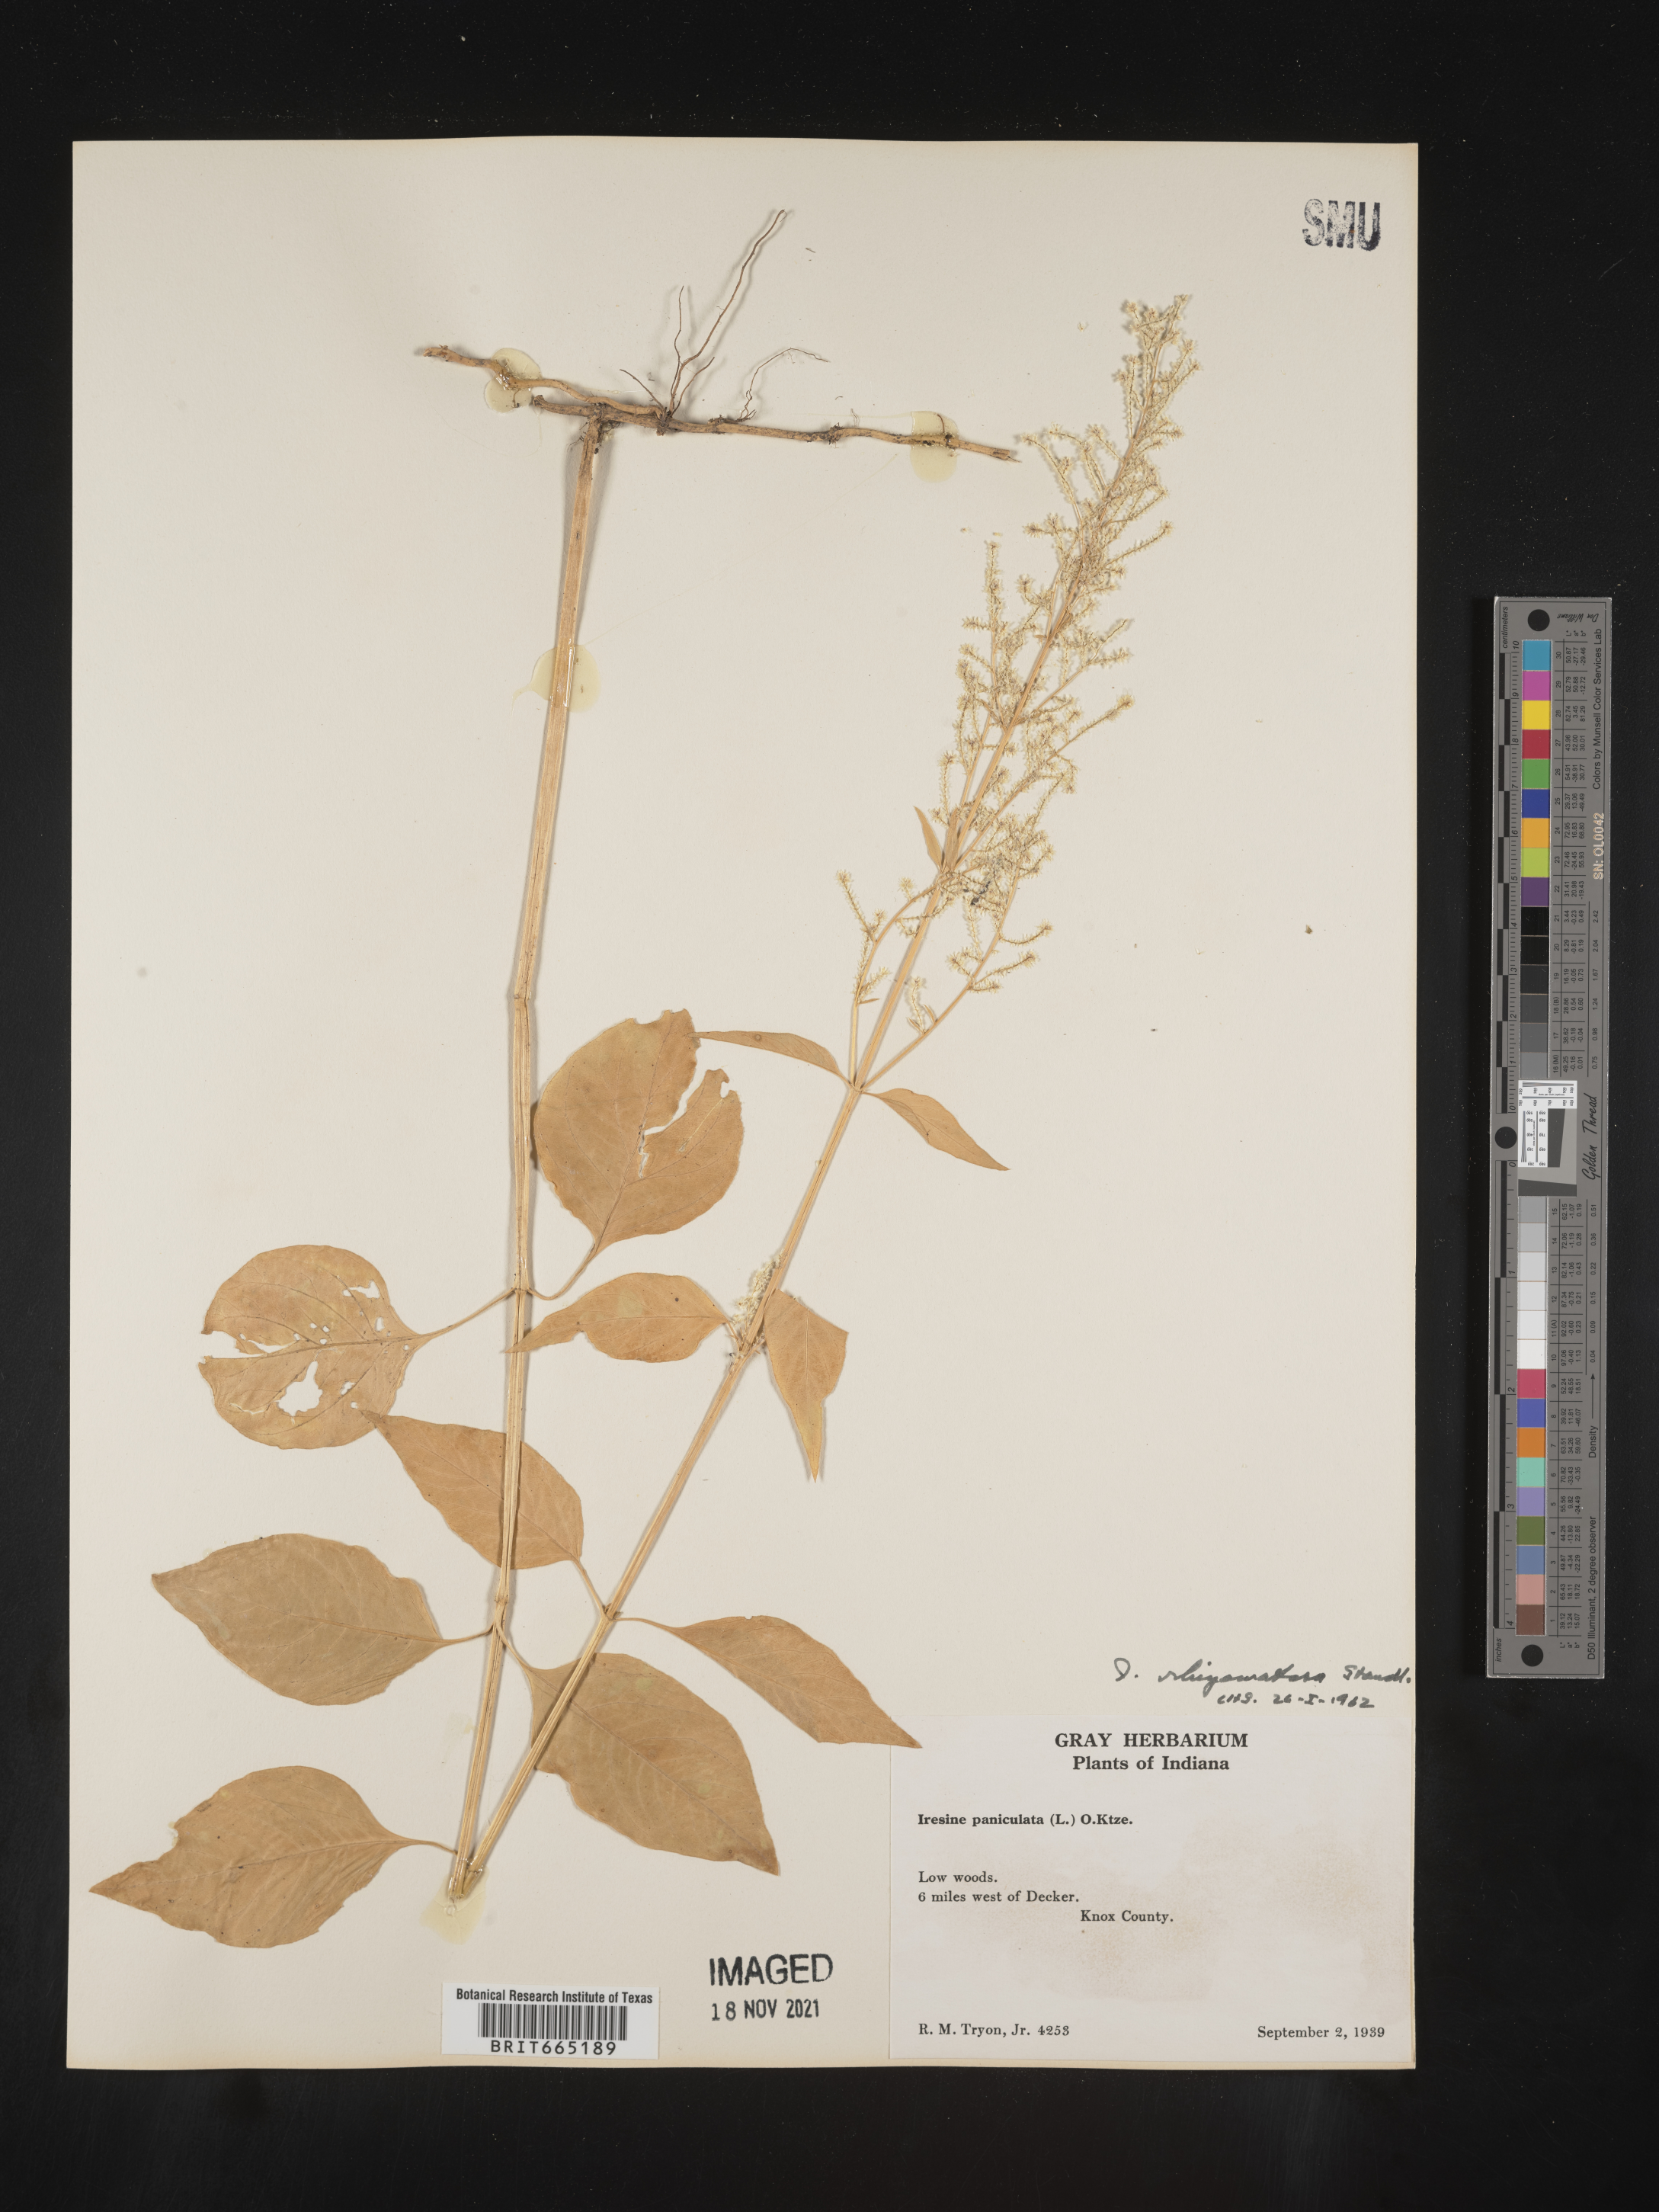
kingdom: Plantae
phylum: Tracheophyta
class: Magnoliopsida
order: Caryophyllales
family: Amaranthaceae
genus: Iresine
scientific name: Iresine rhizomatosa
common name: Juda's-bush
